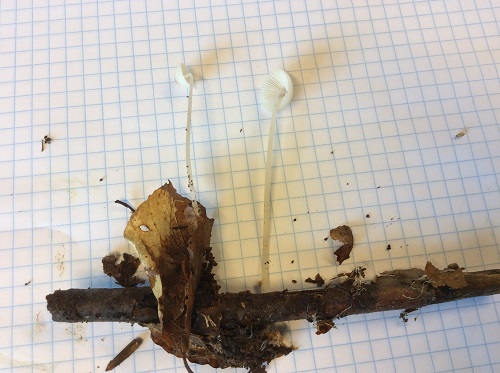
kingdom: Fungi
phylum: Basidiomycota
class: Agaricomycetes
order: Agaricales
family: Mycenaceae
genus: Mycena
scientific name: Mycena vitilis
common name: blankstokket huesvamp
